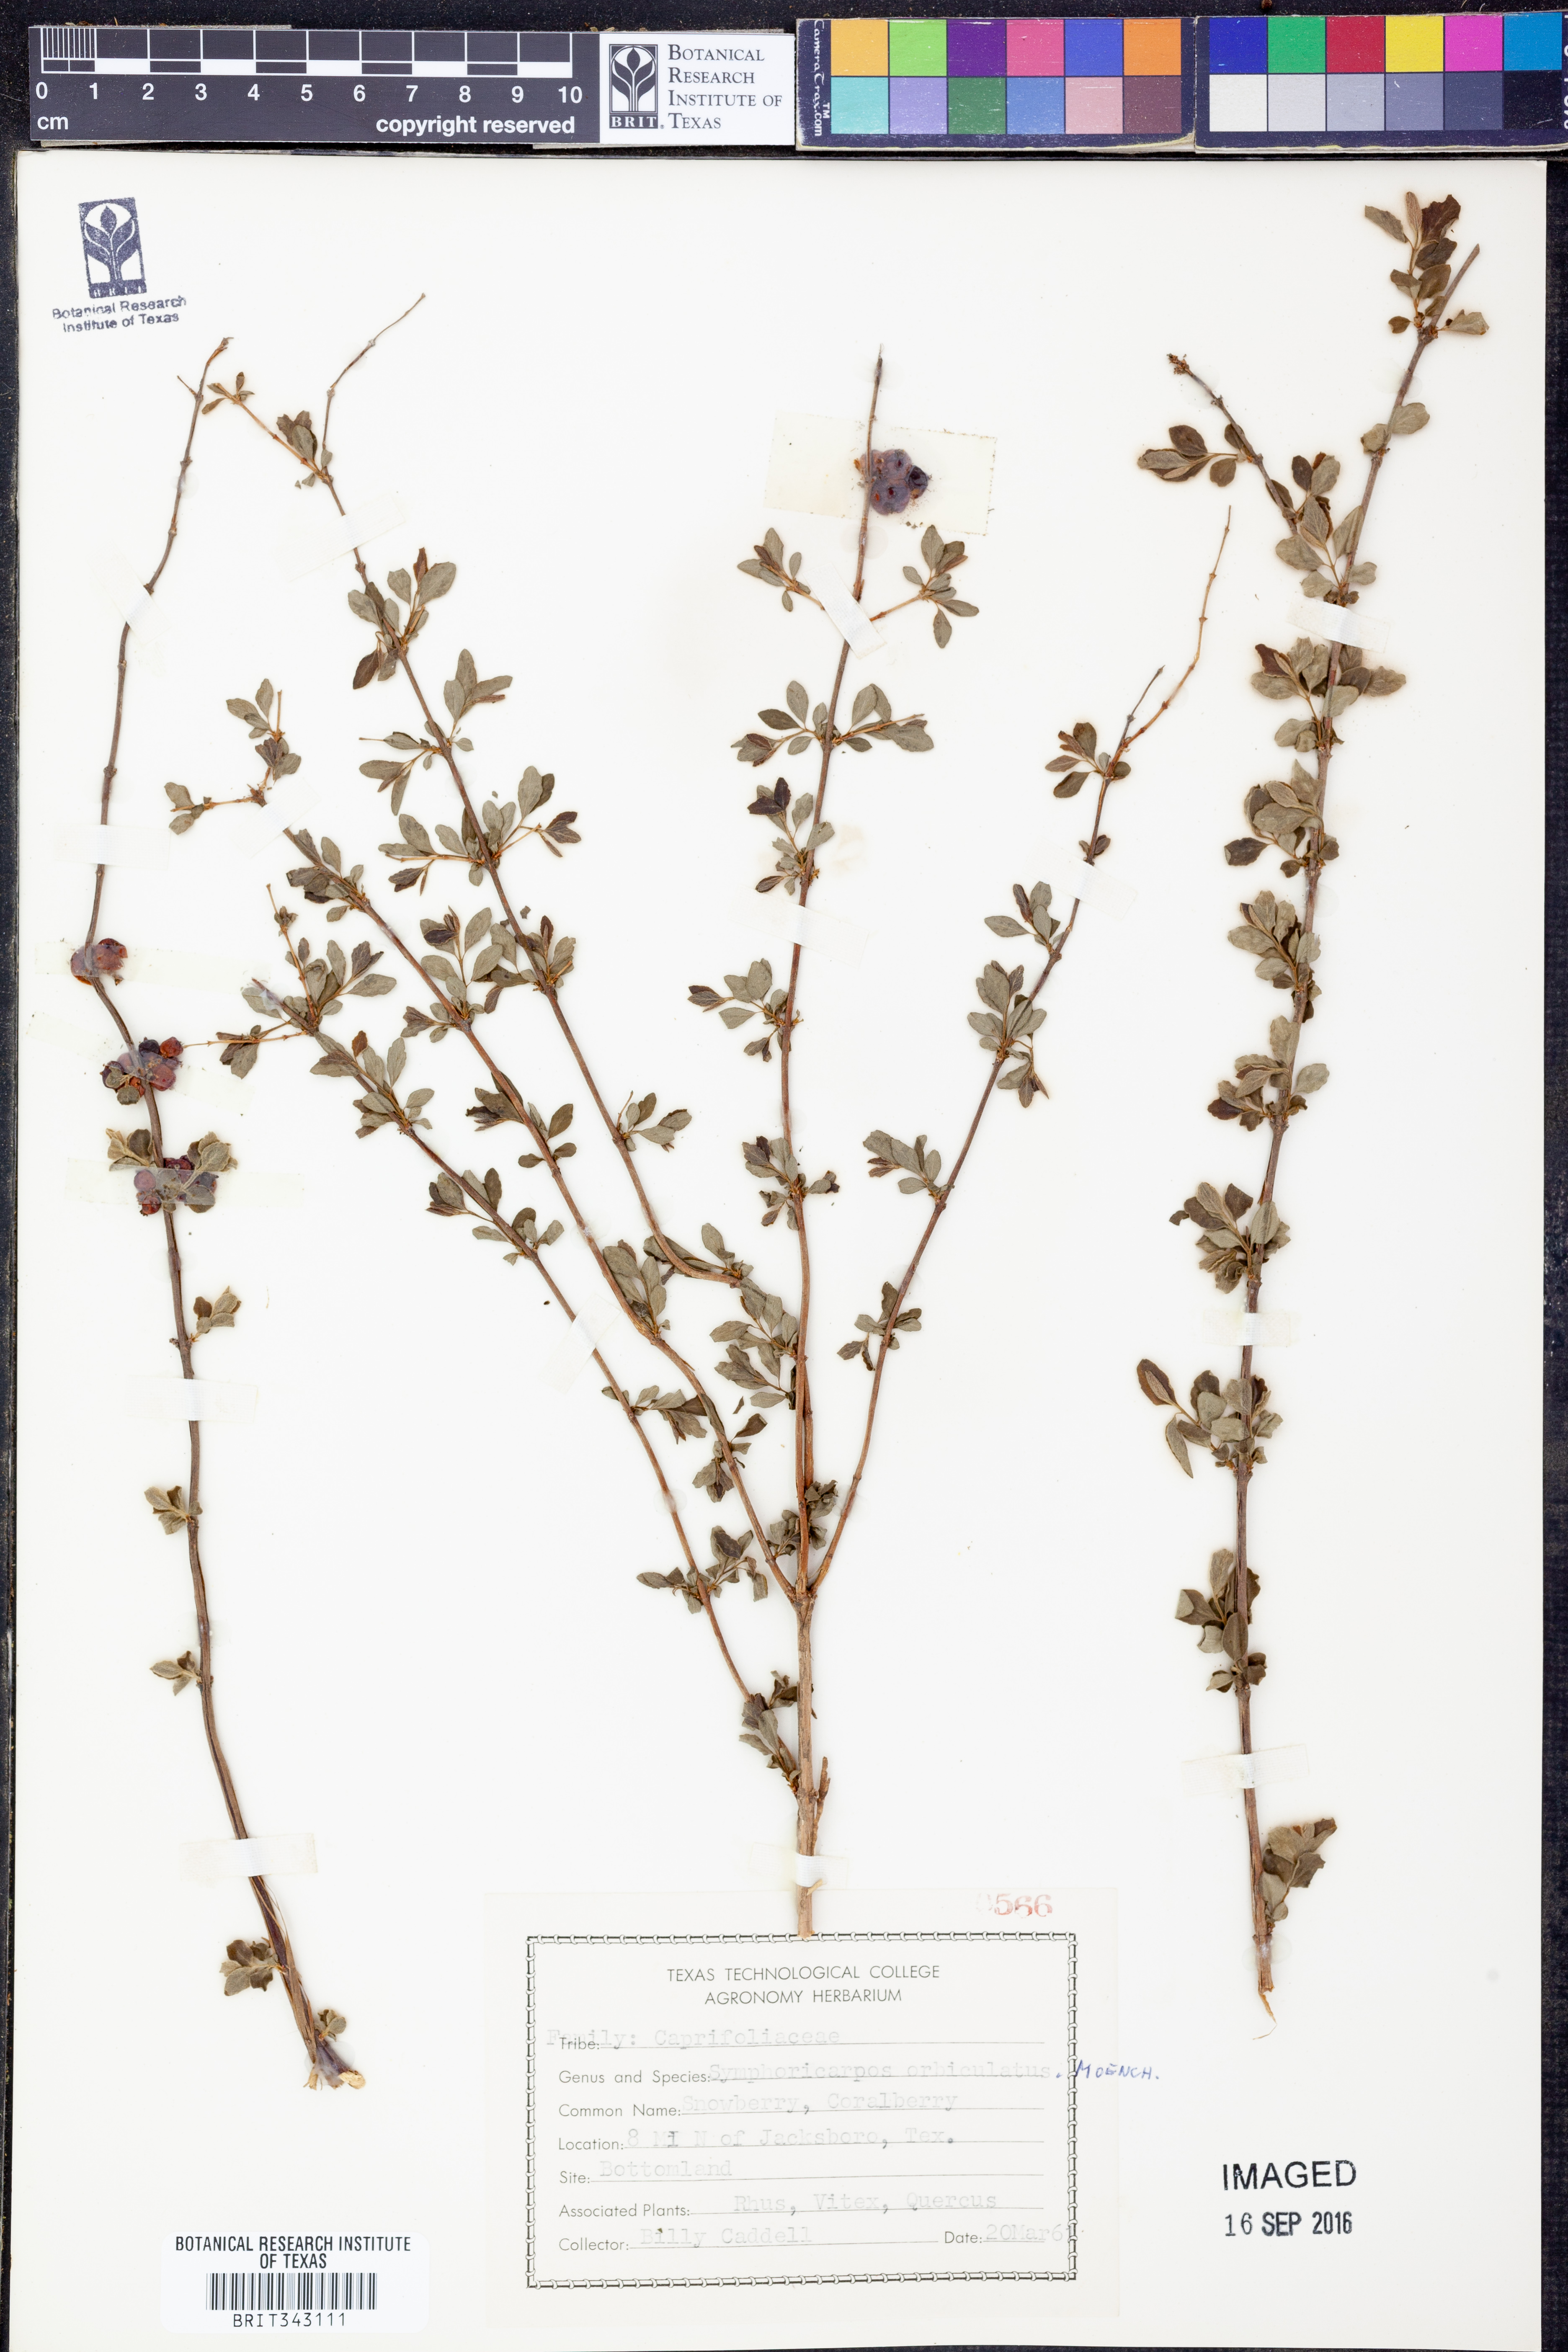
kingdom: Plantae
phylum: Tracheophyta
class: Magnoliopsida
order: Dipsacales
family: Caprifoliaceae
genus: Symphoricarpos
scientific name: Symphoricarpos orbiculatus
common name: Coralberry
